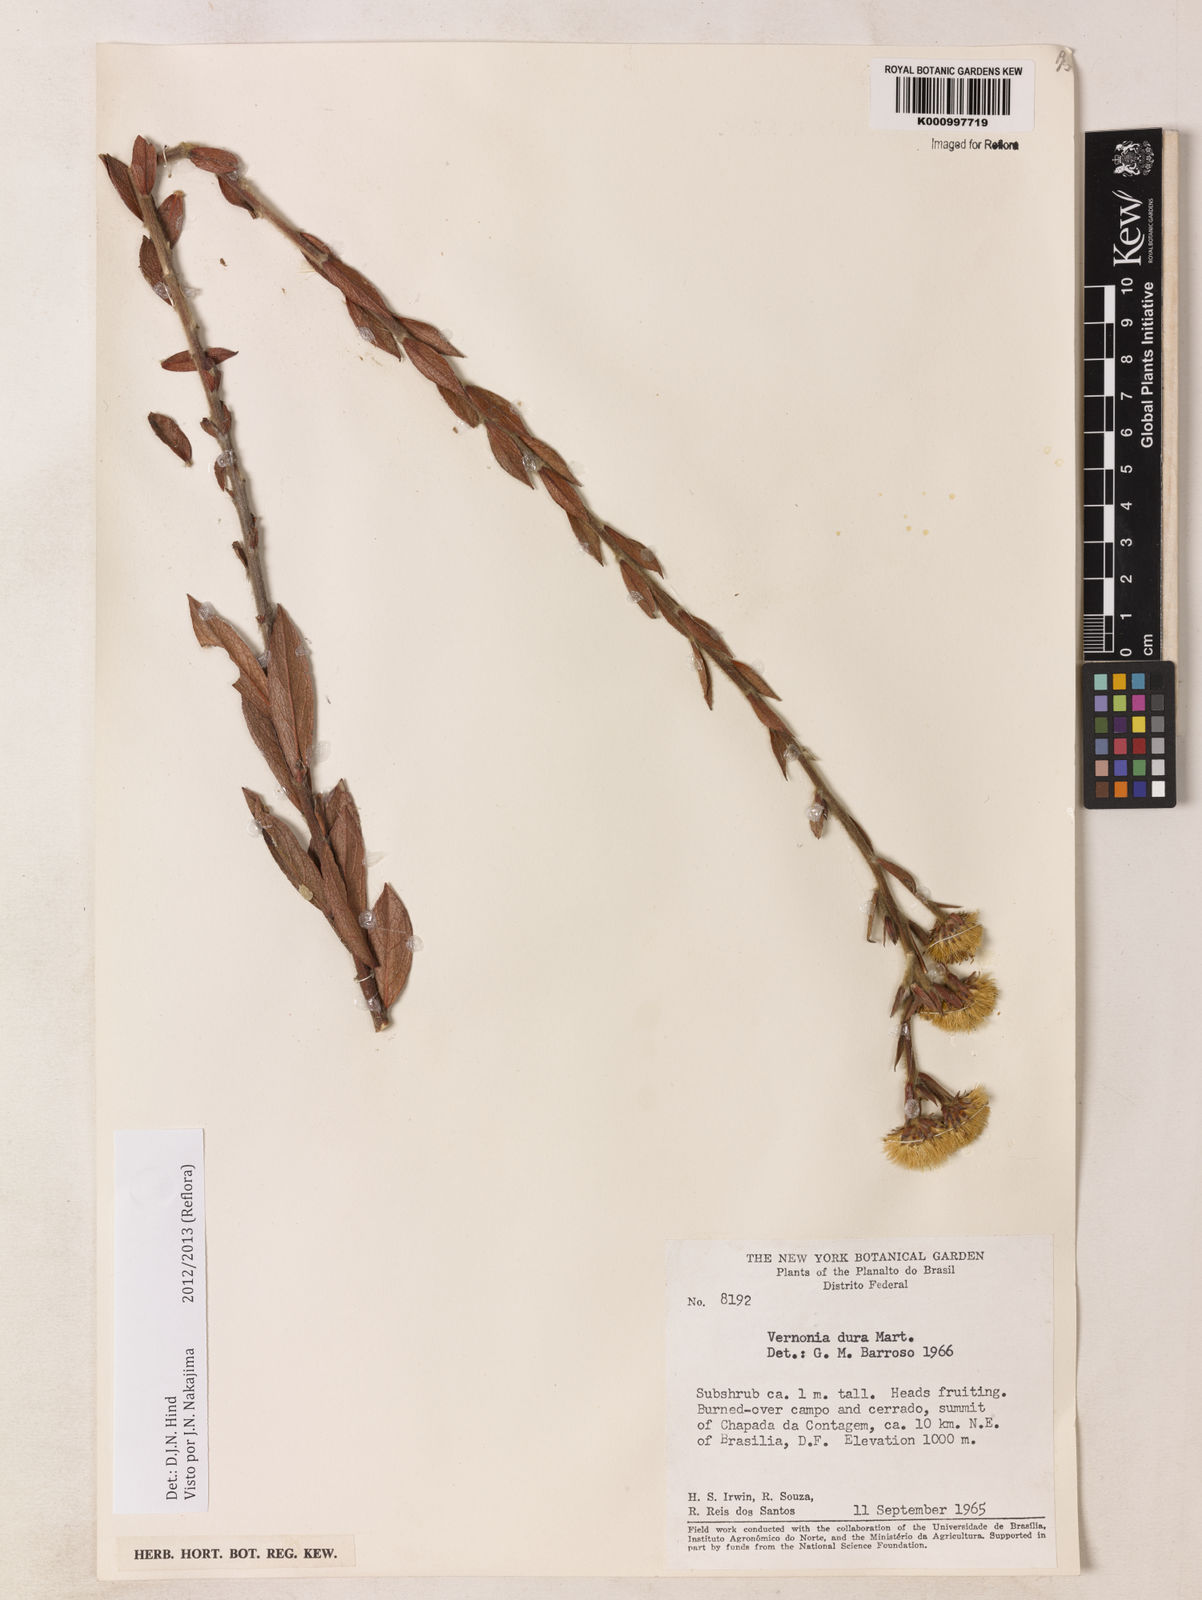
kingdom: Plantae
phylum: Tracheophyta
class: Magnoliopsida
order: Asterales
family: Asteraceae
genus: Lessingianthus
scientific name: Lessingianthus durus
